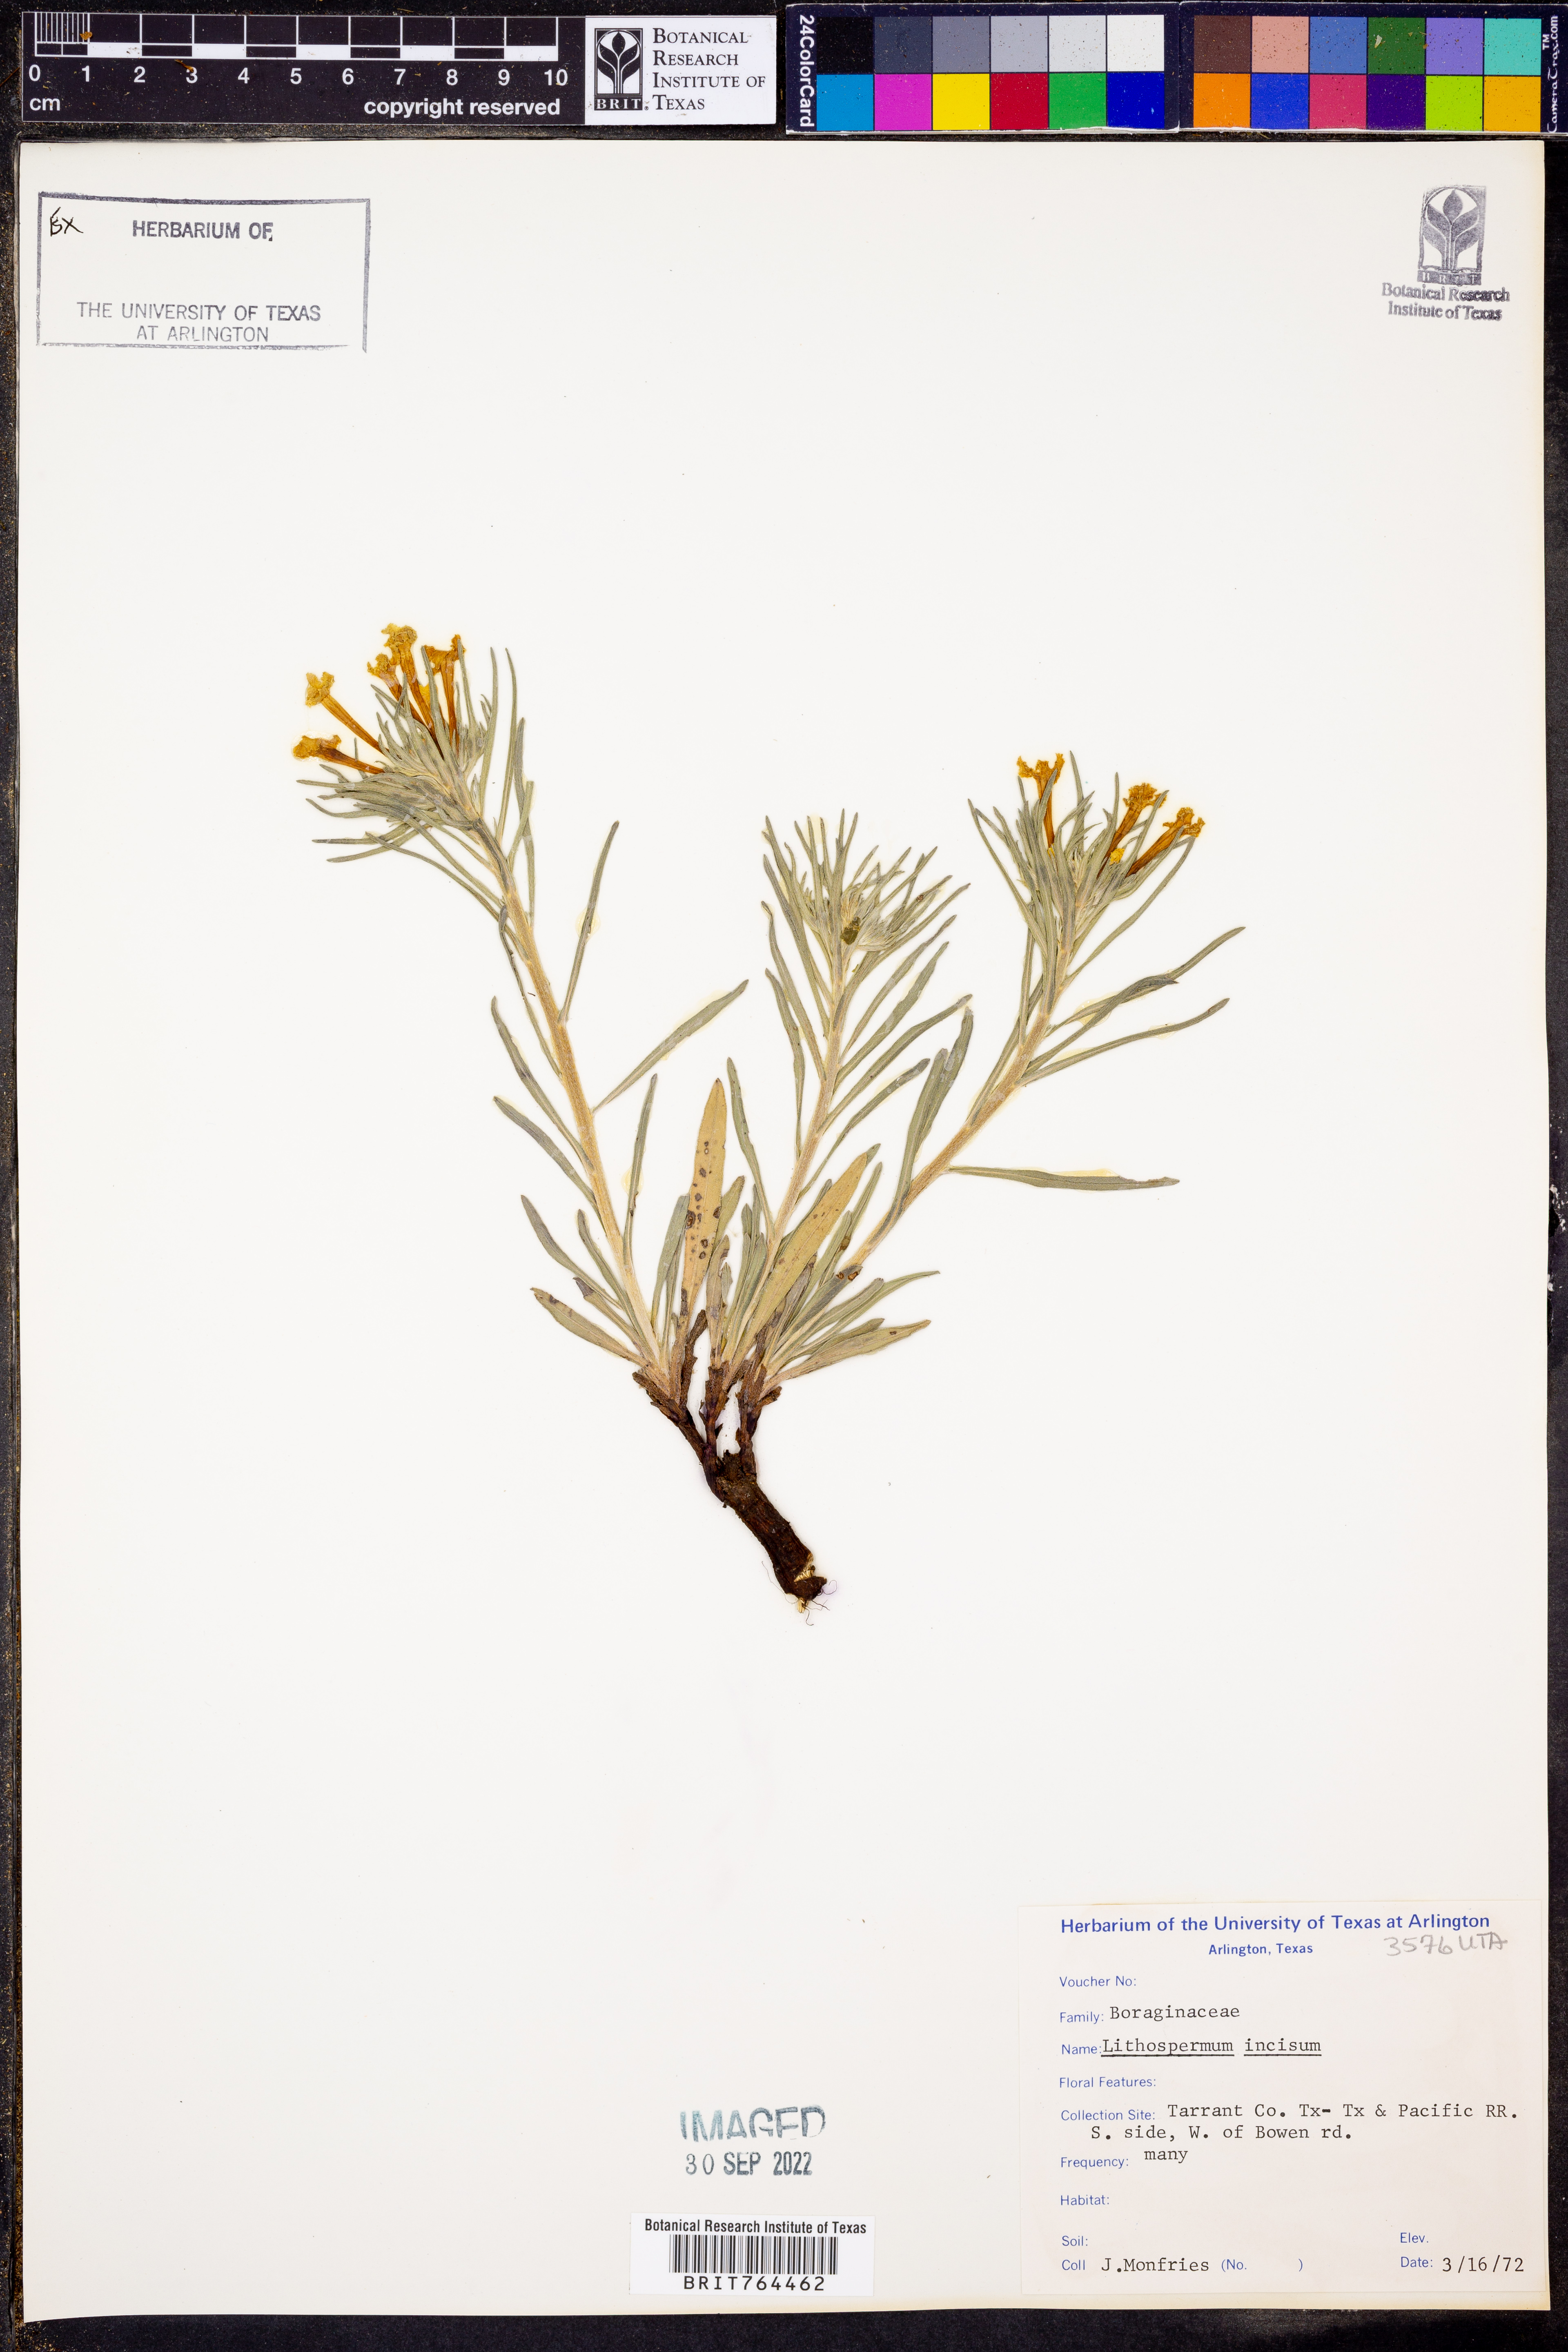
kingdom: Plantae
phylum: Tracheophyta
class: Magnoliopsida
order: Boraginales
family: Boraginaceae
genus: Lithospermum
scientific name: Lithospermum incisum
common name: Fringed gromwell
